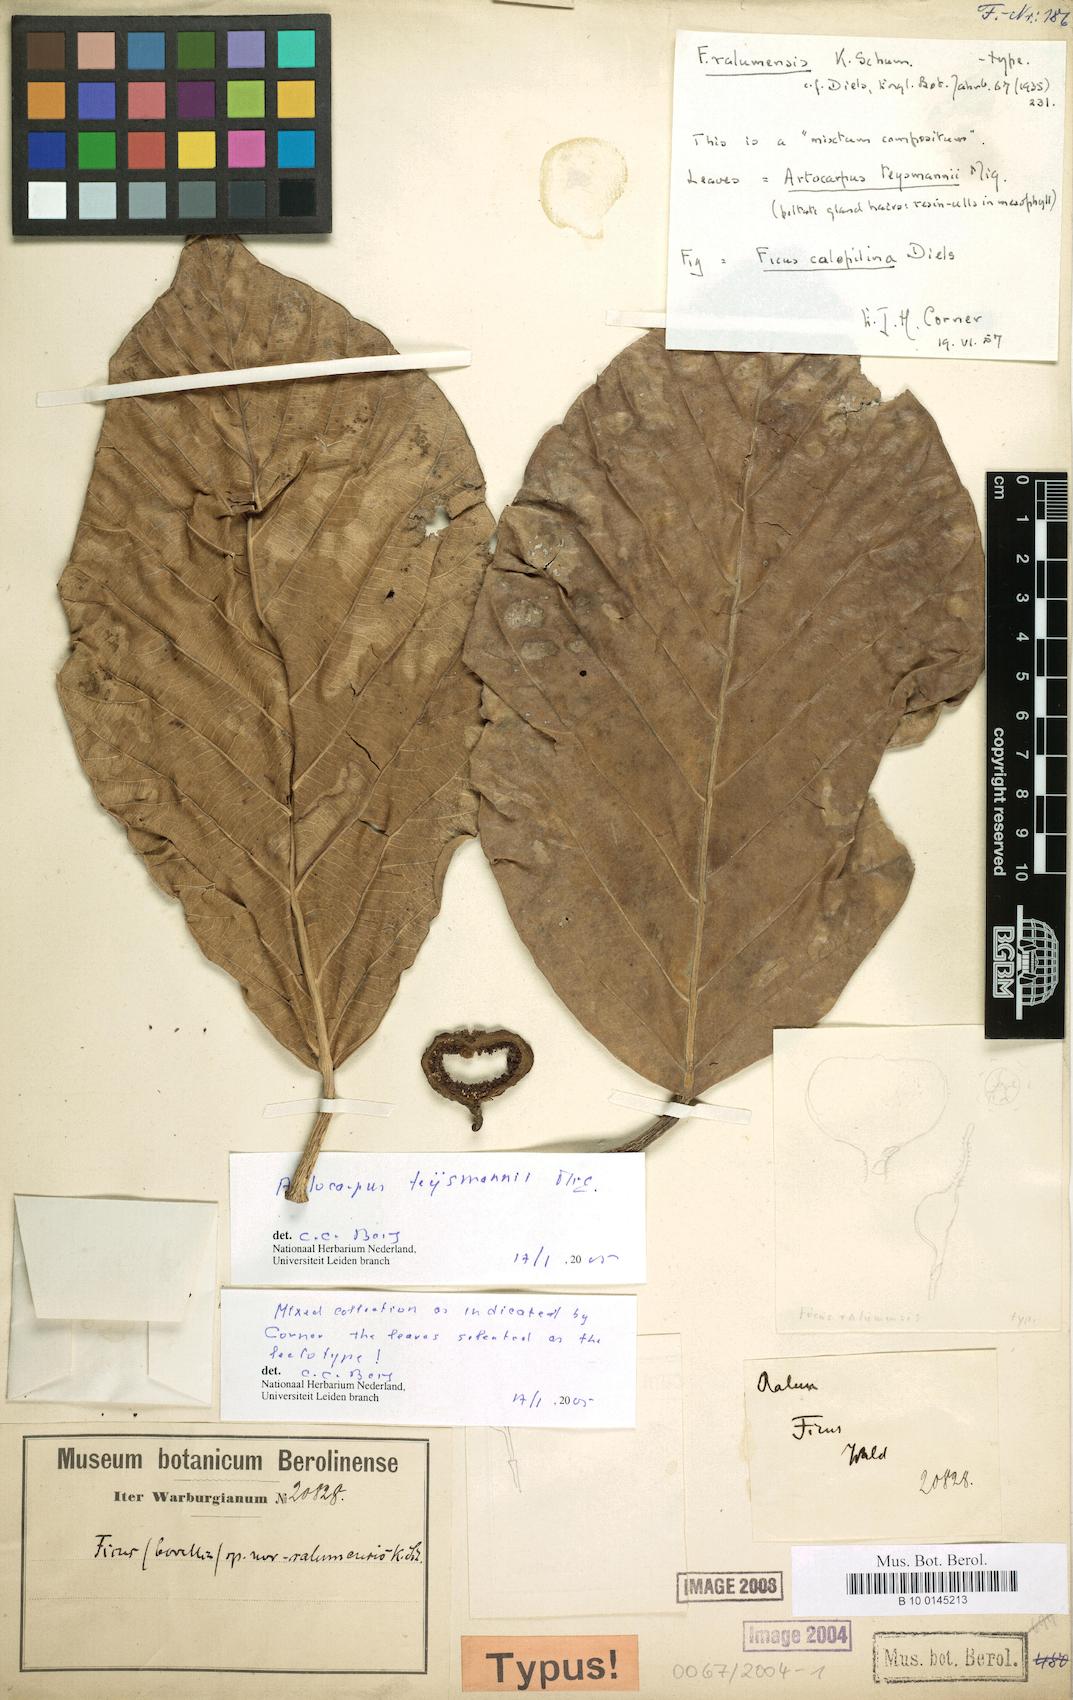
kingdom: Plantae
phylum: Tracheophyta
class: Magnoliopsida
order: Rosales
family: Moraceae
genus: Artocarpus
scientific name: Artocarpus teysmannii
